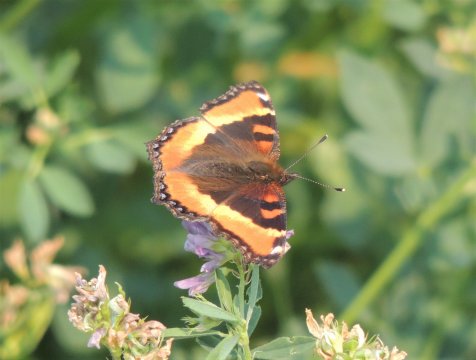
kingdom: Animalia
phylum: Arthropoda
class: Insecta
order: Lepidoptera
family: Nymphalidae
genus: Aglais
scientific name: Aglais milberti
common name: Milbert's Tortoiseshell
